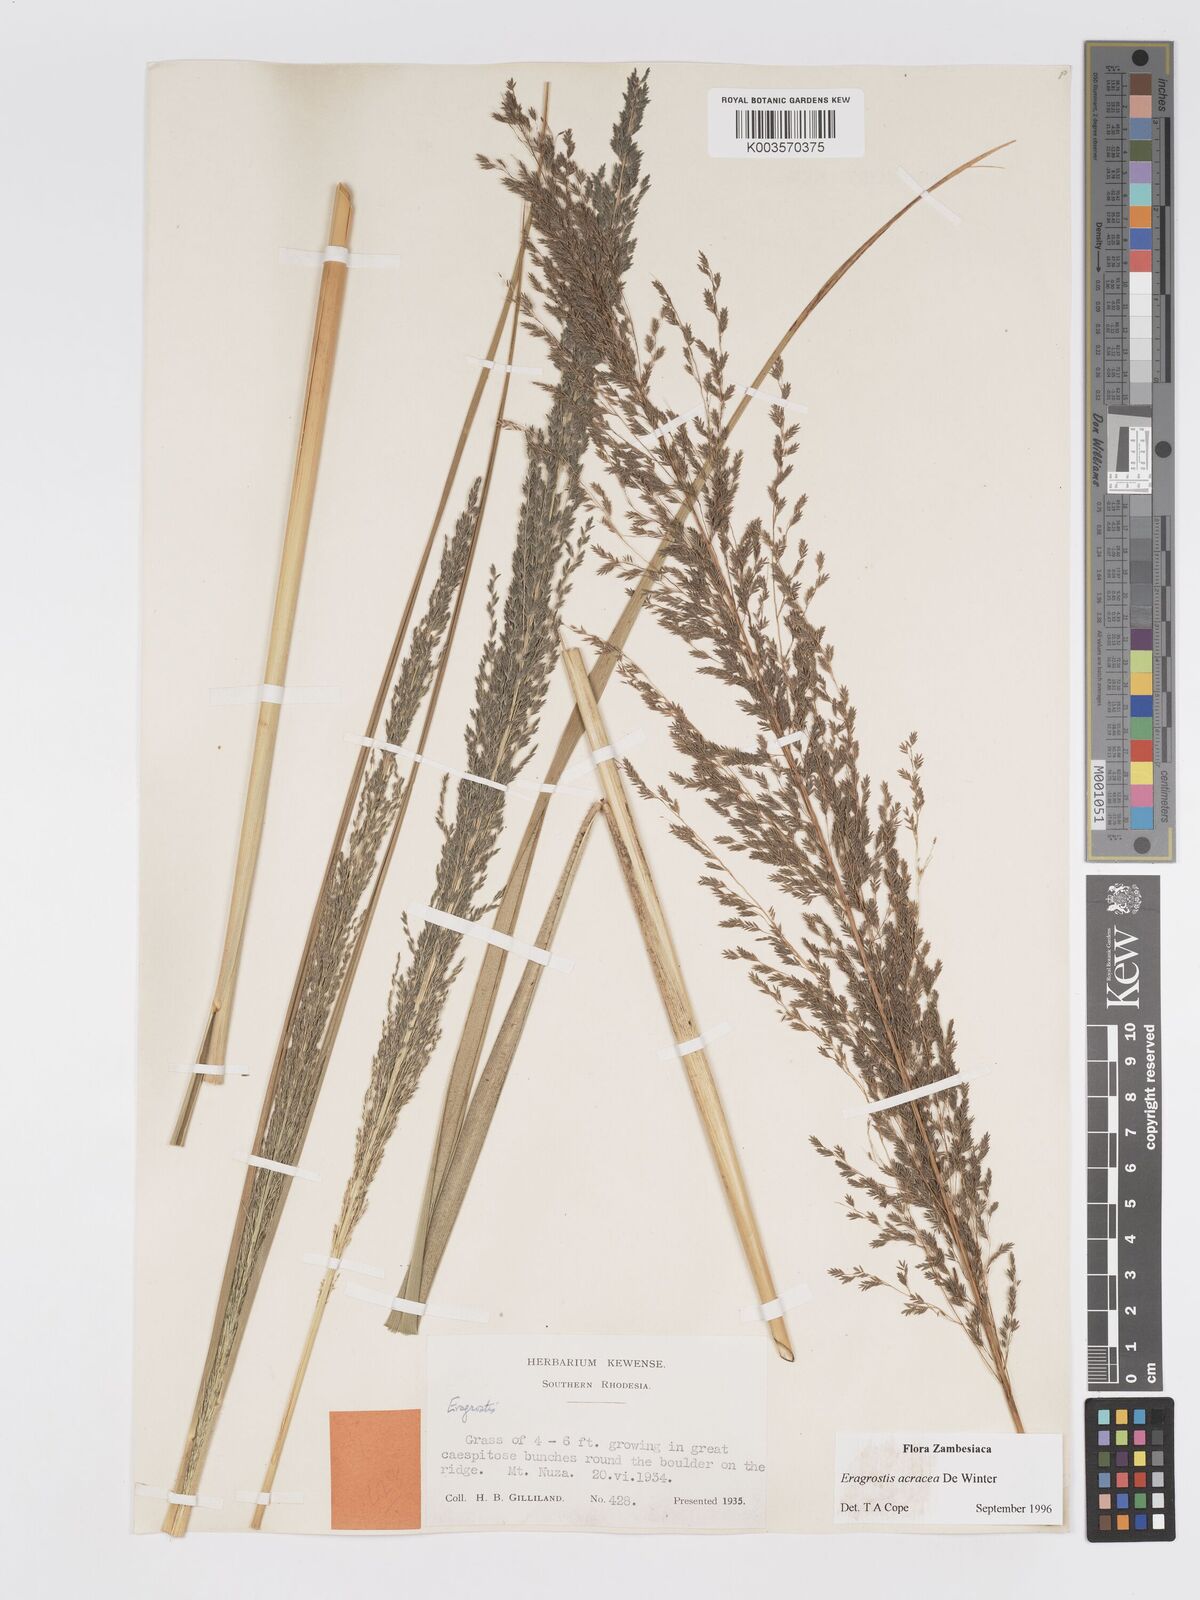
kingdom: Plantae
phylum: Tracheophyta
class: Liliopsida
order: Poales
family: Poaceae
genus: Eragrostis
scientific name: Eragrostis acraea
